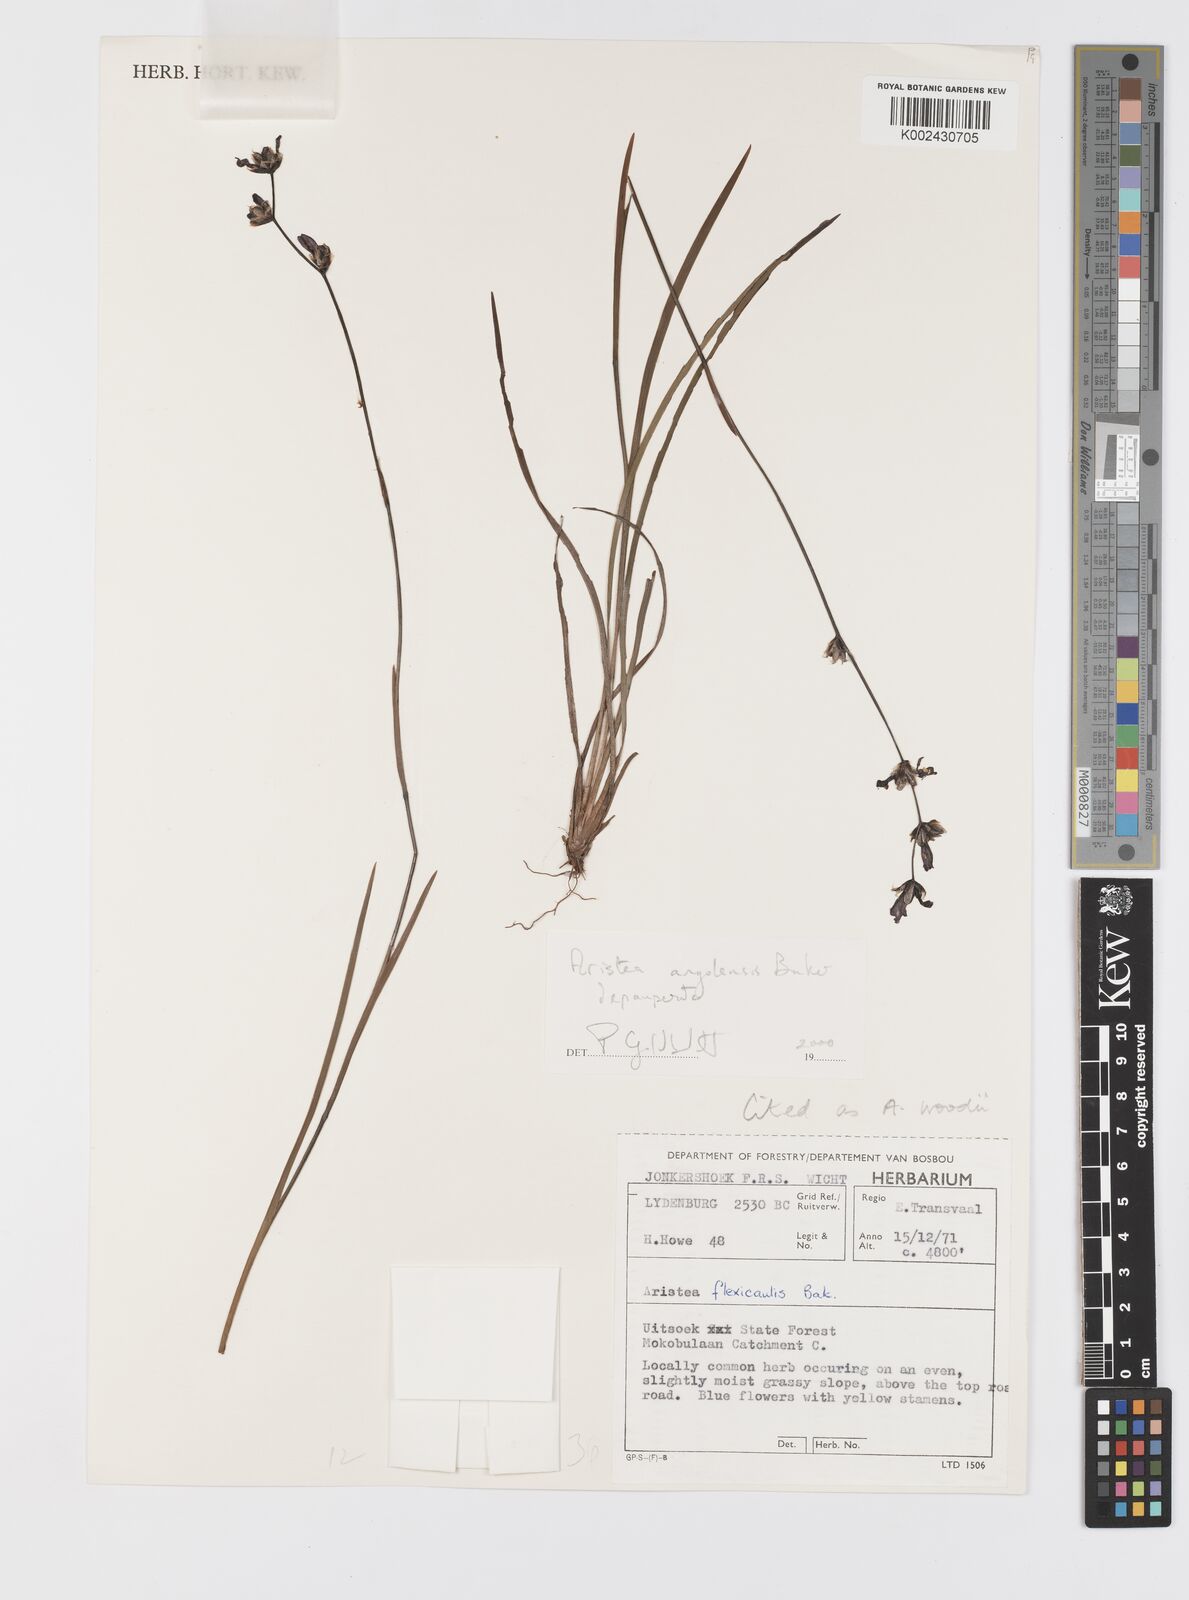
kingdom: Plantae
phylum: Tracheophyta
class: Liliopsida
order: Asparagales
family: Iridaceae
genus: Aristea
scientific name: Aristea angolensis
